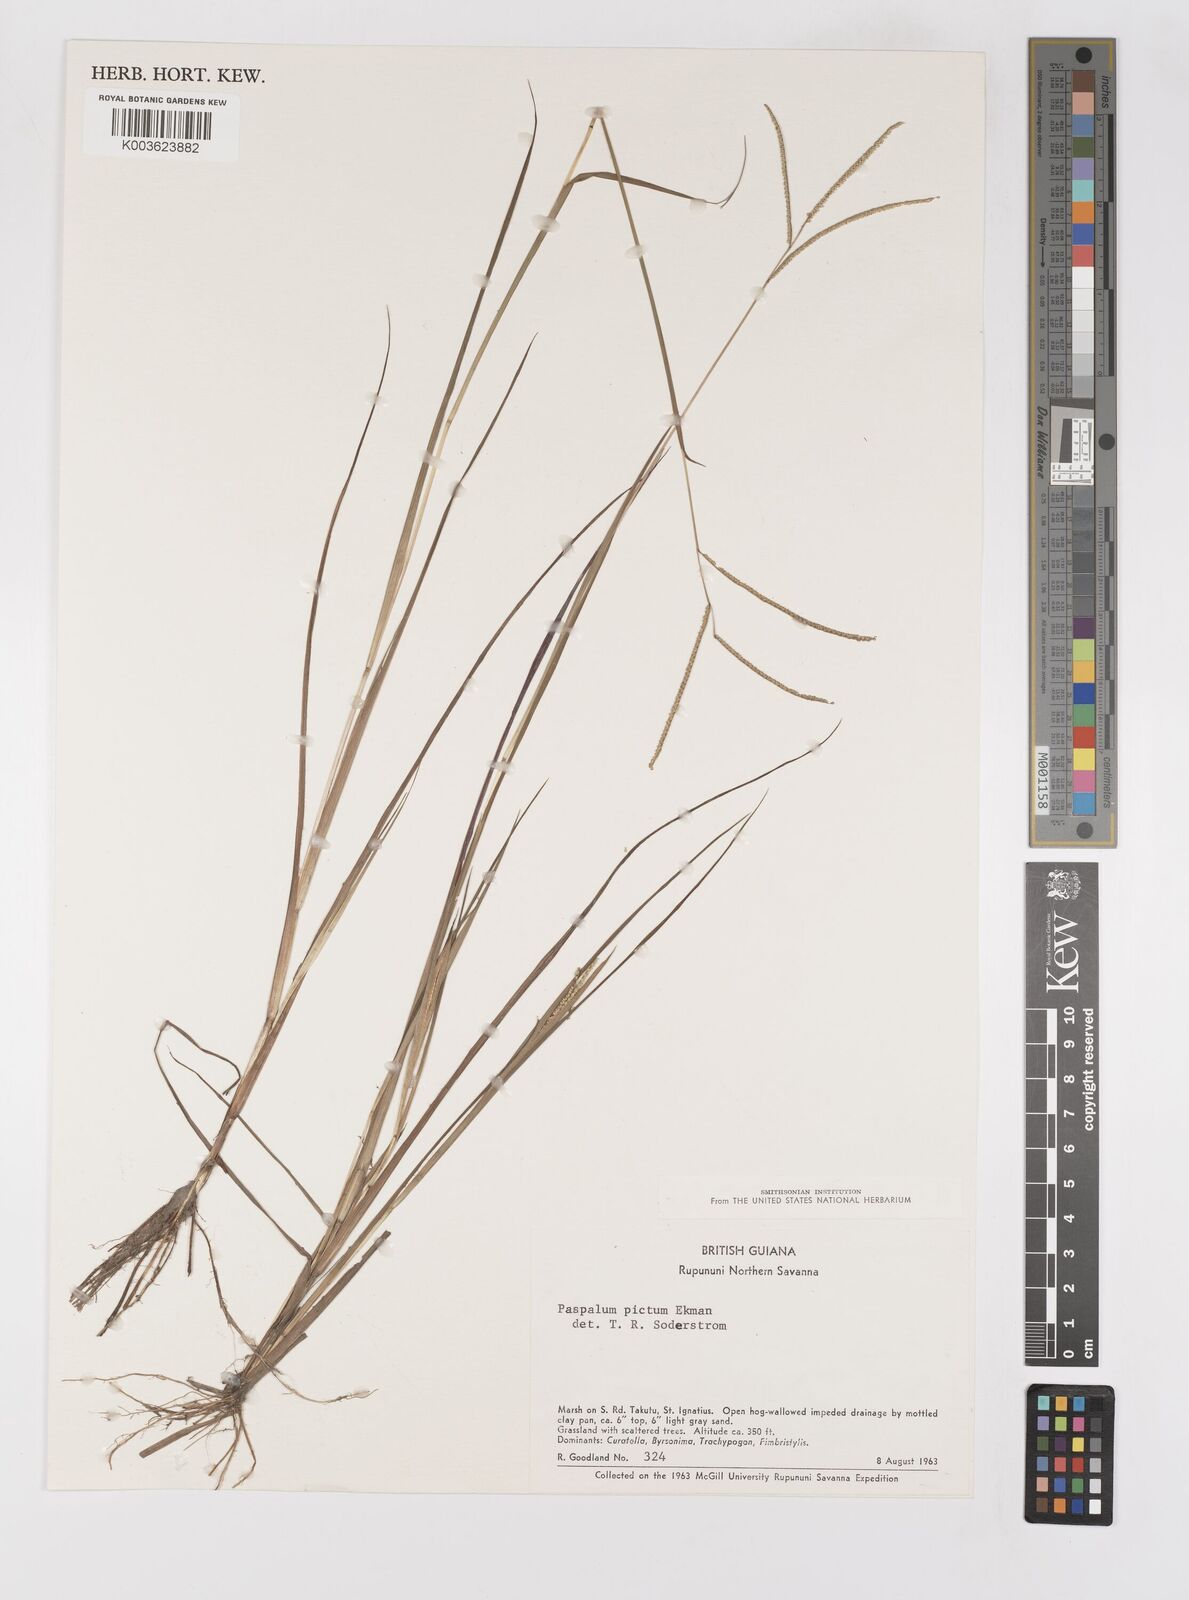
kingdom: Plantae
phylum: Tracheophyta
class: Liliopsida
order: Poales
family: Poaceae
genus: Paspalum
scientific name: Paspalum pictum
